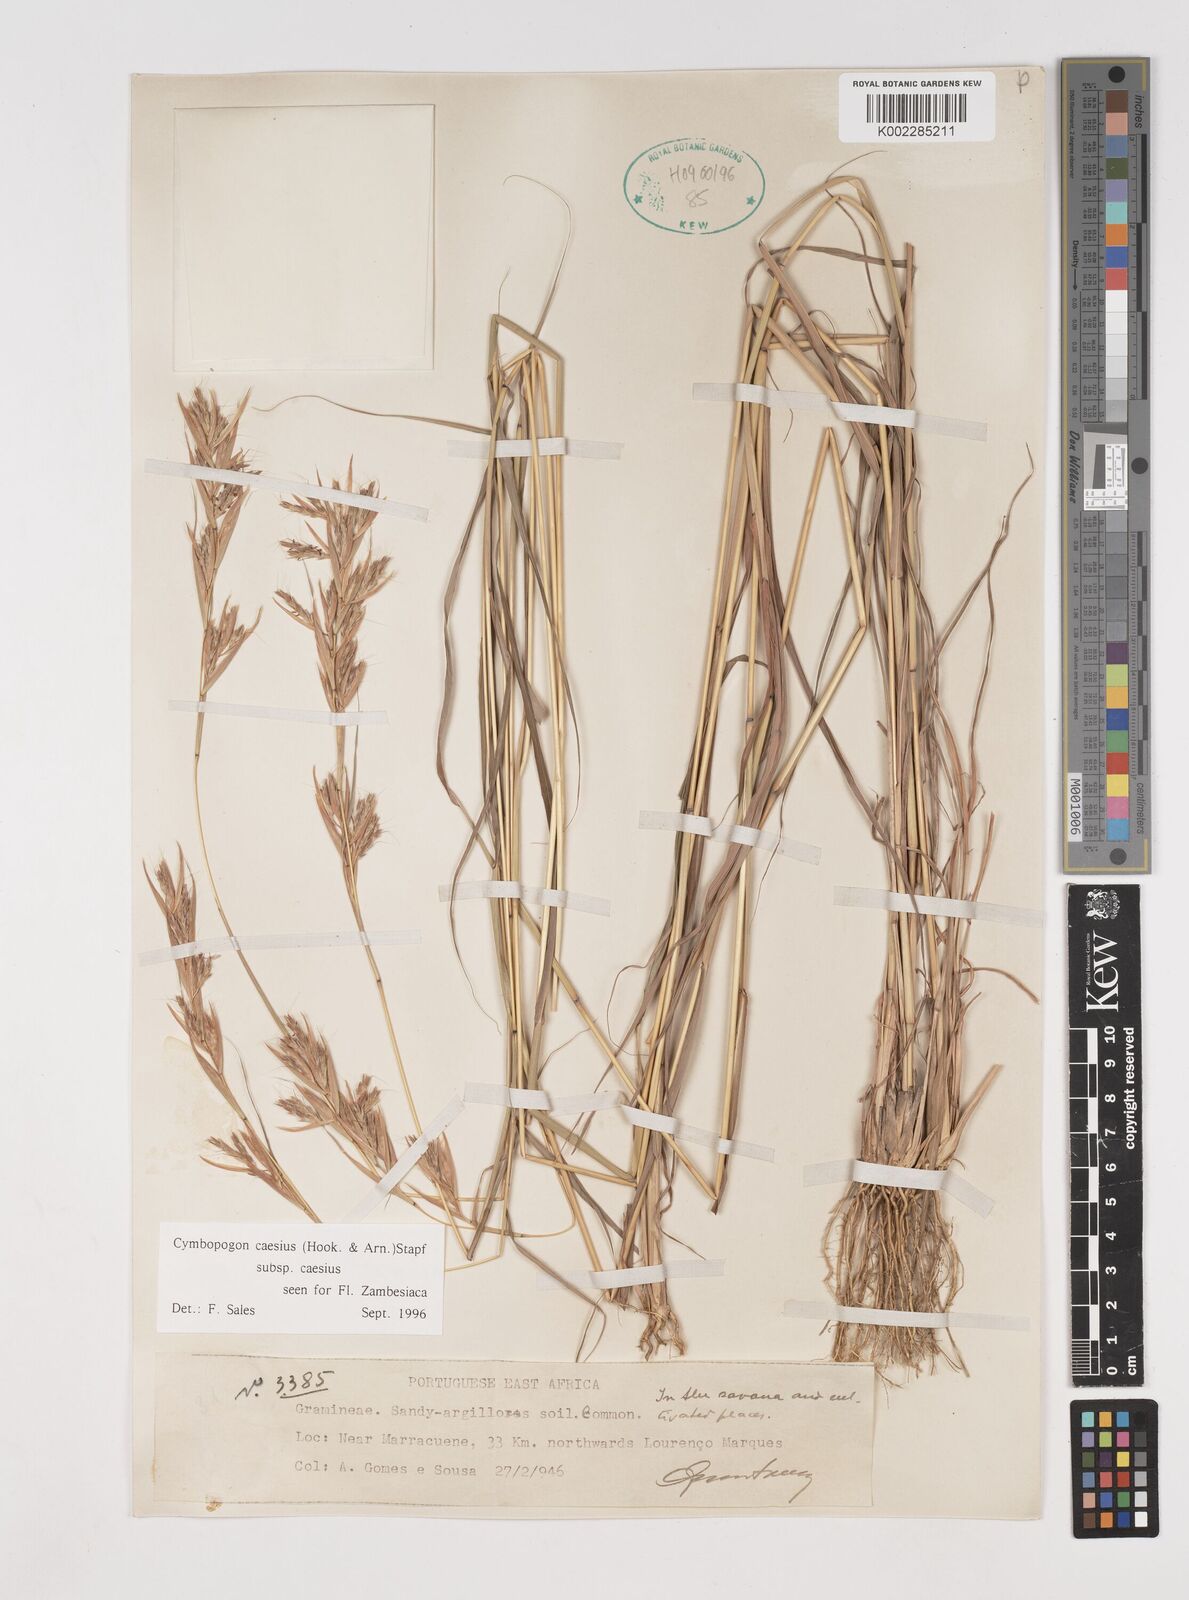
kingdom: Plantae
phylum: Tracheophyta
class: Liliopsida
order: Poales
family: Poaceae
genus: Cymbopogon
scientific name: Cymbopogon caesius
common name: Kachi grass
